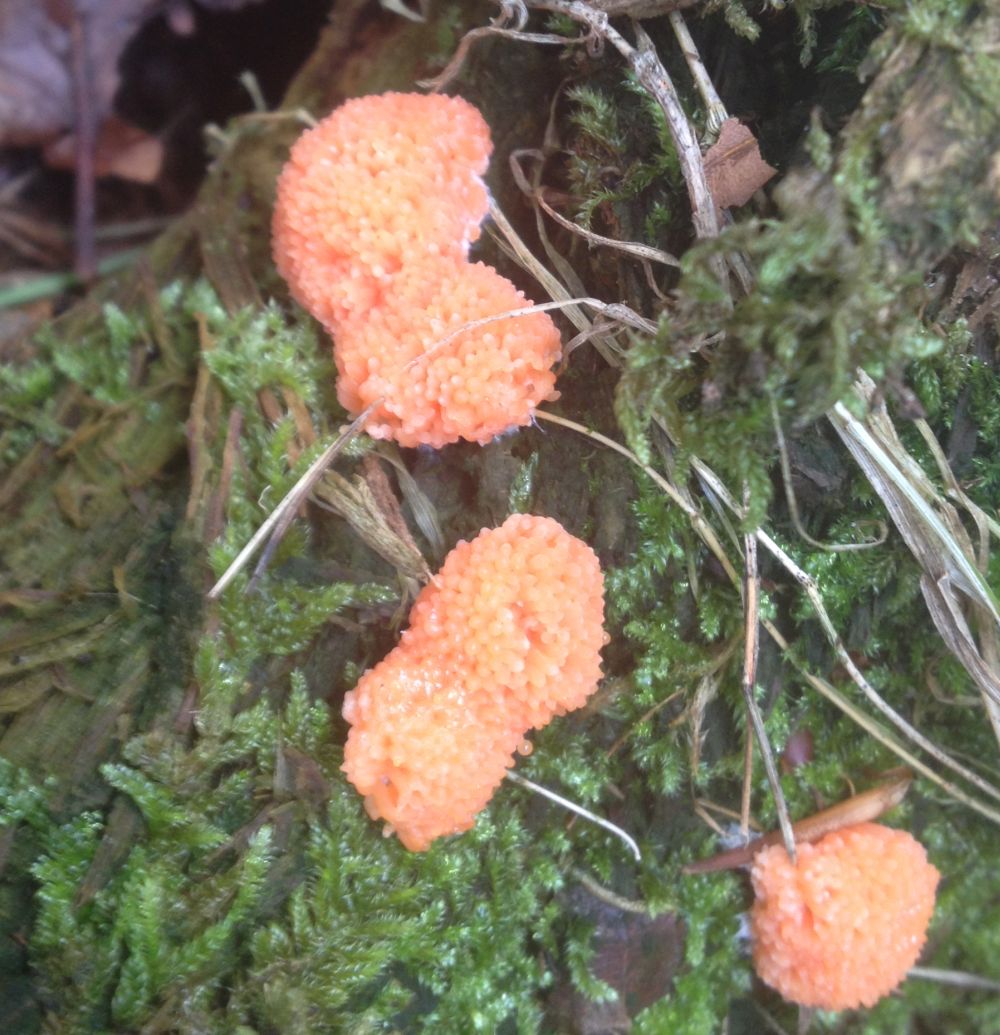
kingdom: Protozoa
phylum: Mycetozoa
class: Myxomycetes
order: Cribrariales
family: Tubiferaceae
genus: Tubifera
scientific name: Tubifera ferruginosa
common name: kanel-støvrør
